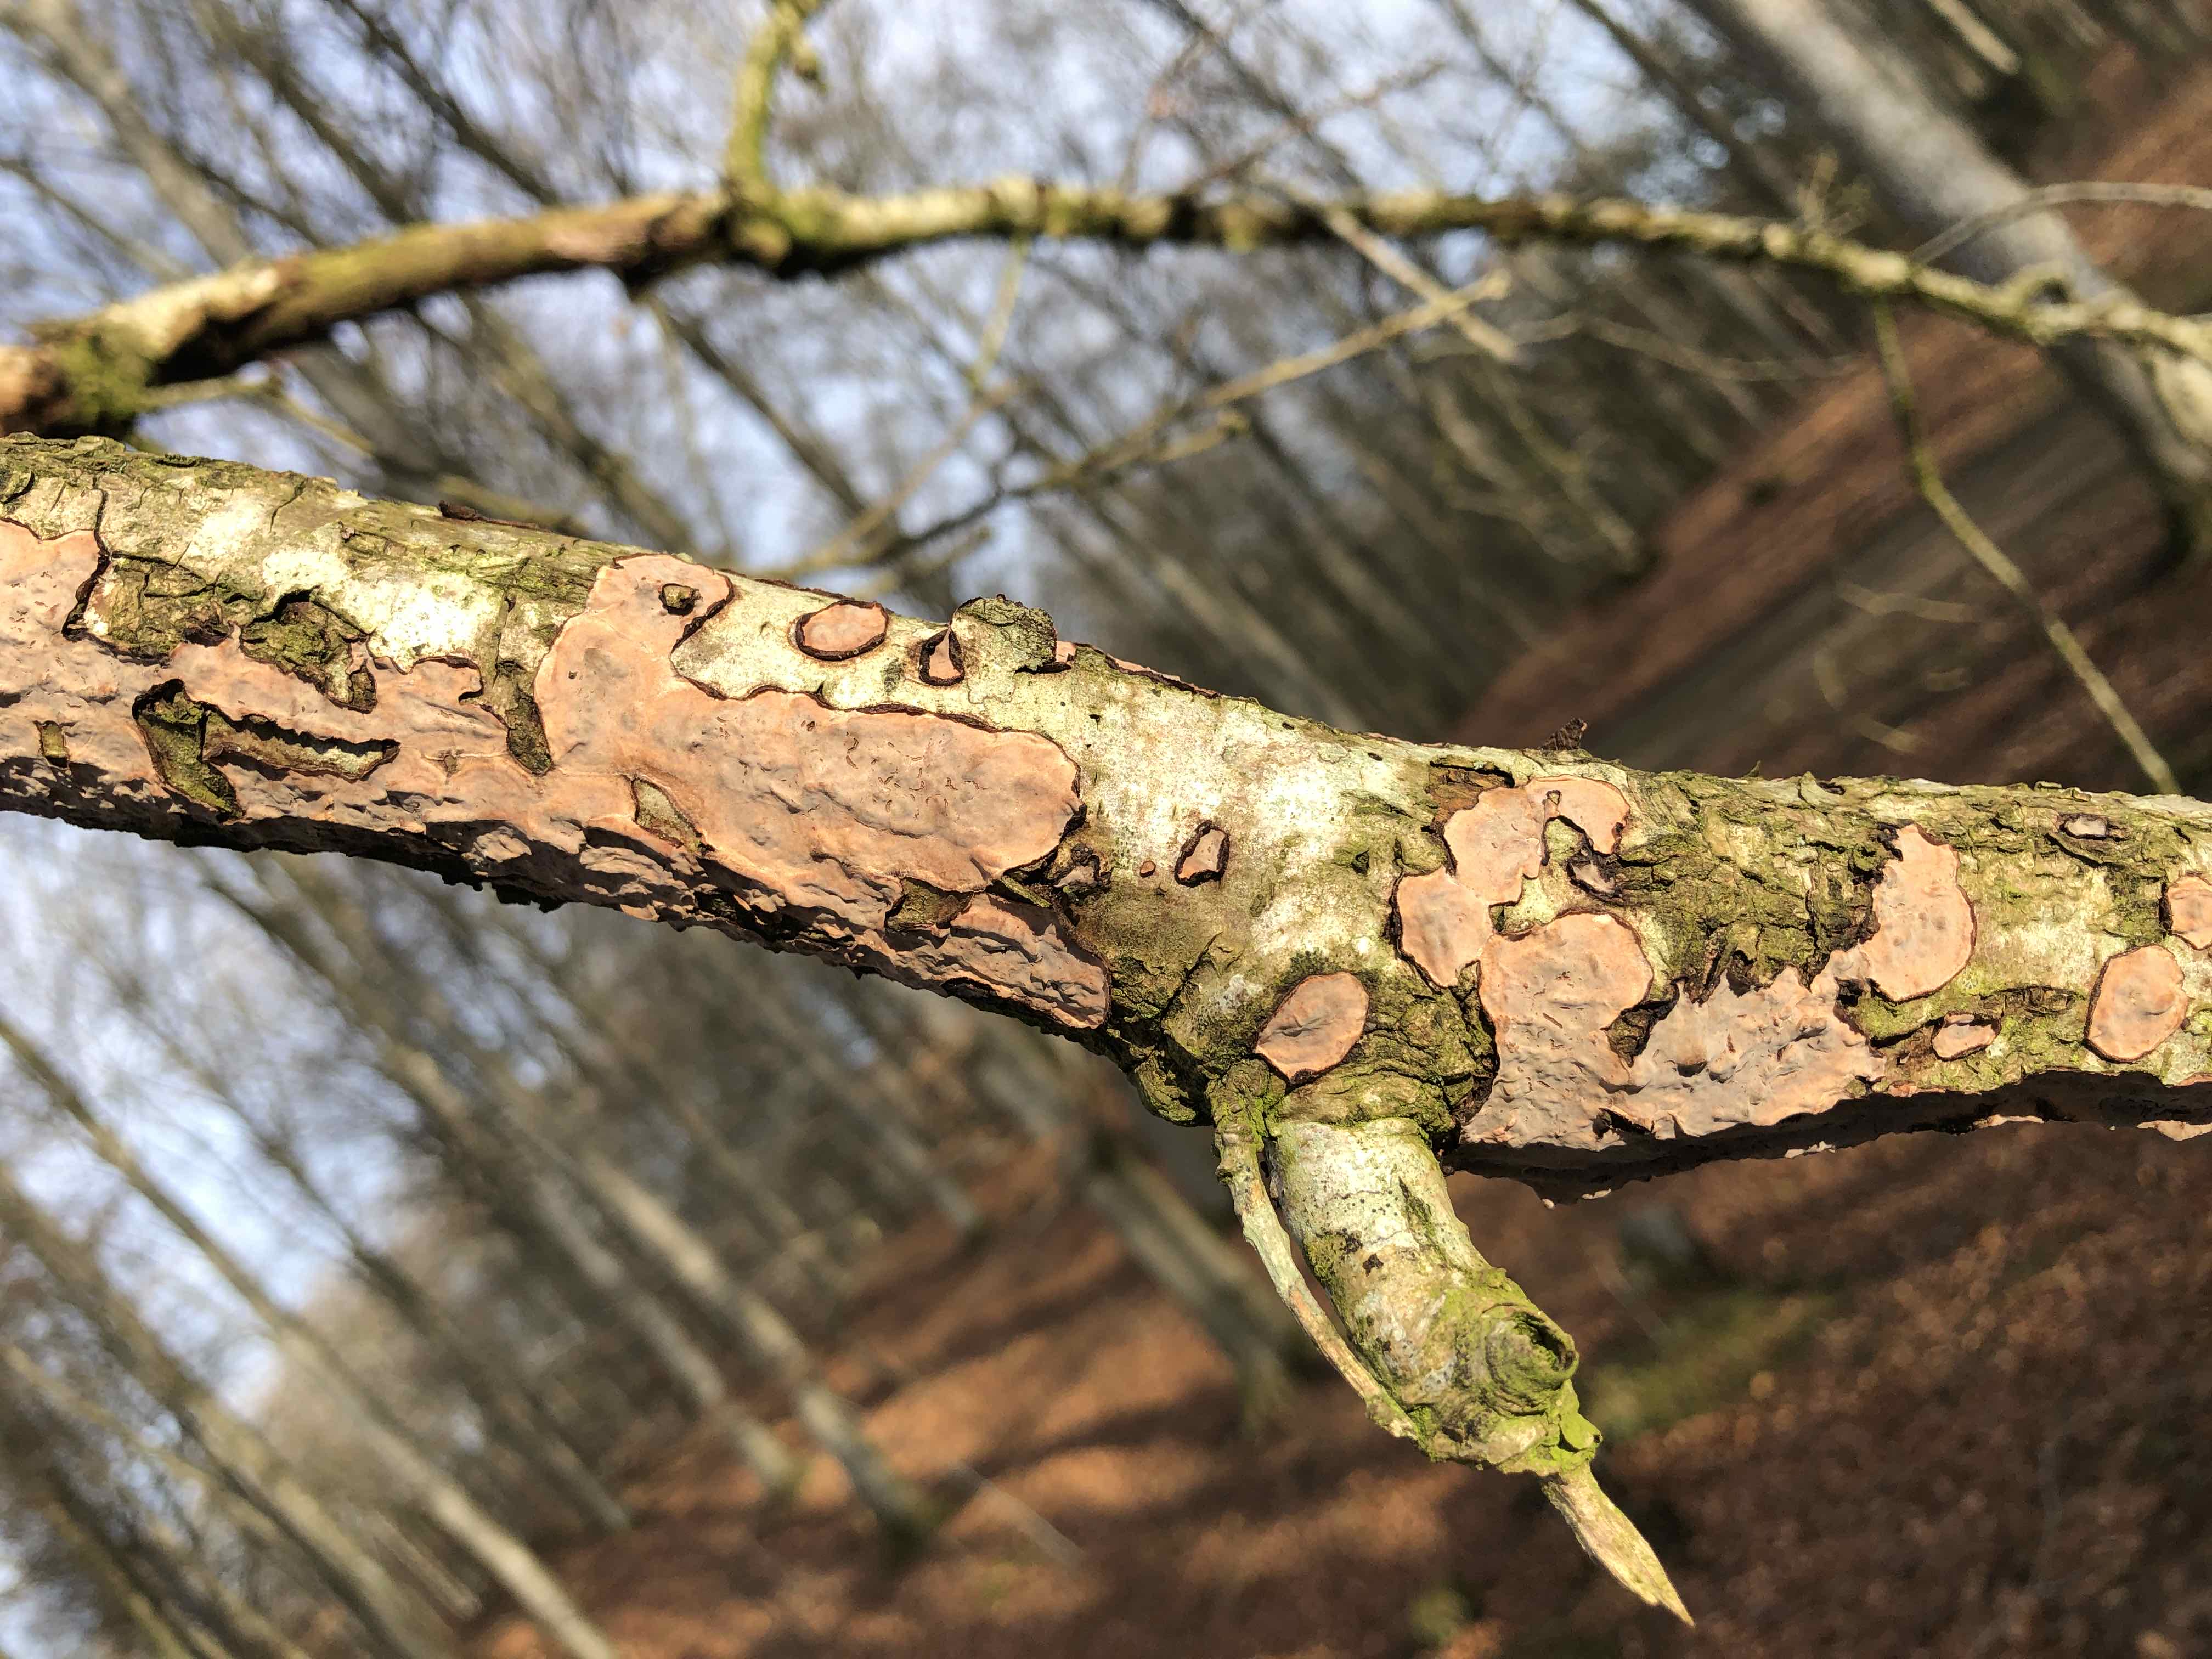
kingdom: Fungi
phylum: Basidiomycota
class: Agaricomycetes
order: Russulales
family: Peniophoraceae
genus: Peniophora
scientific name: Peniophora quercina
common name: ege-voksskind
